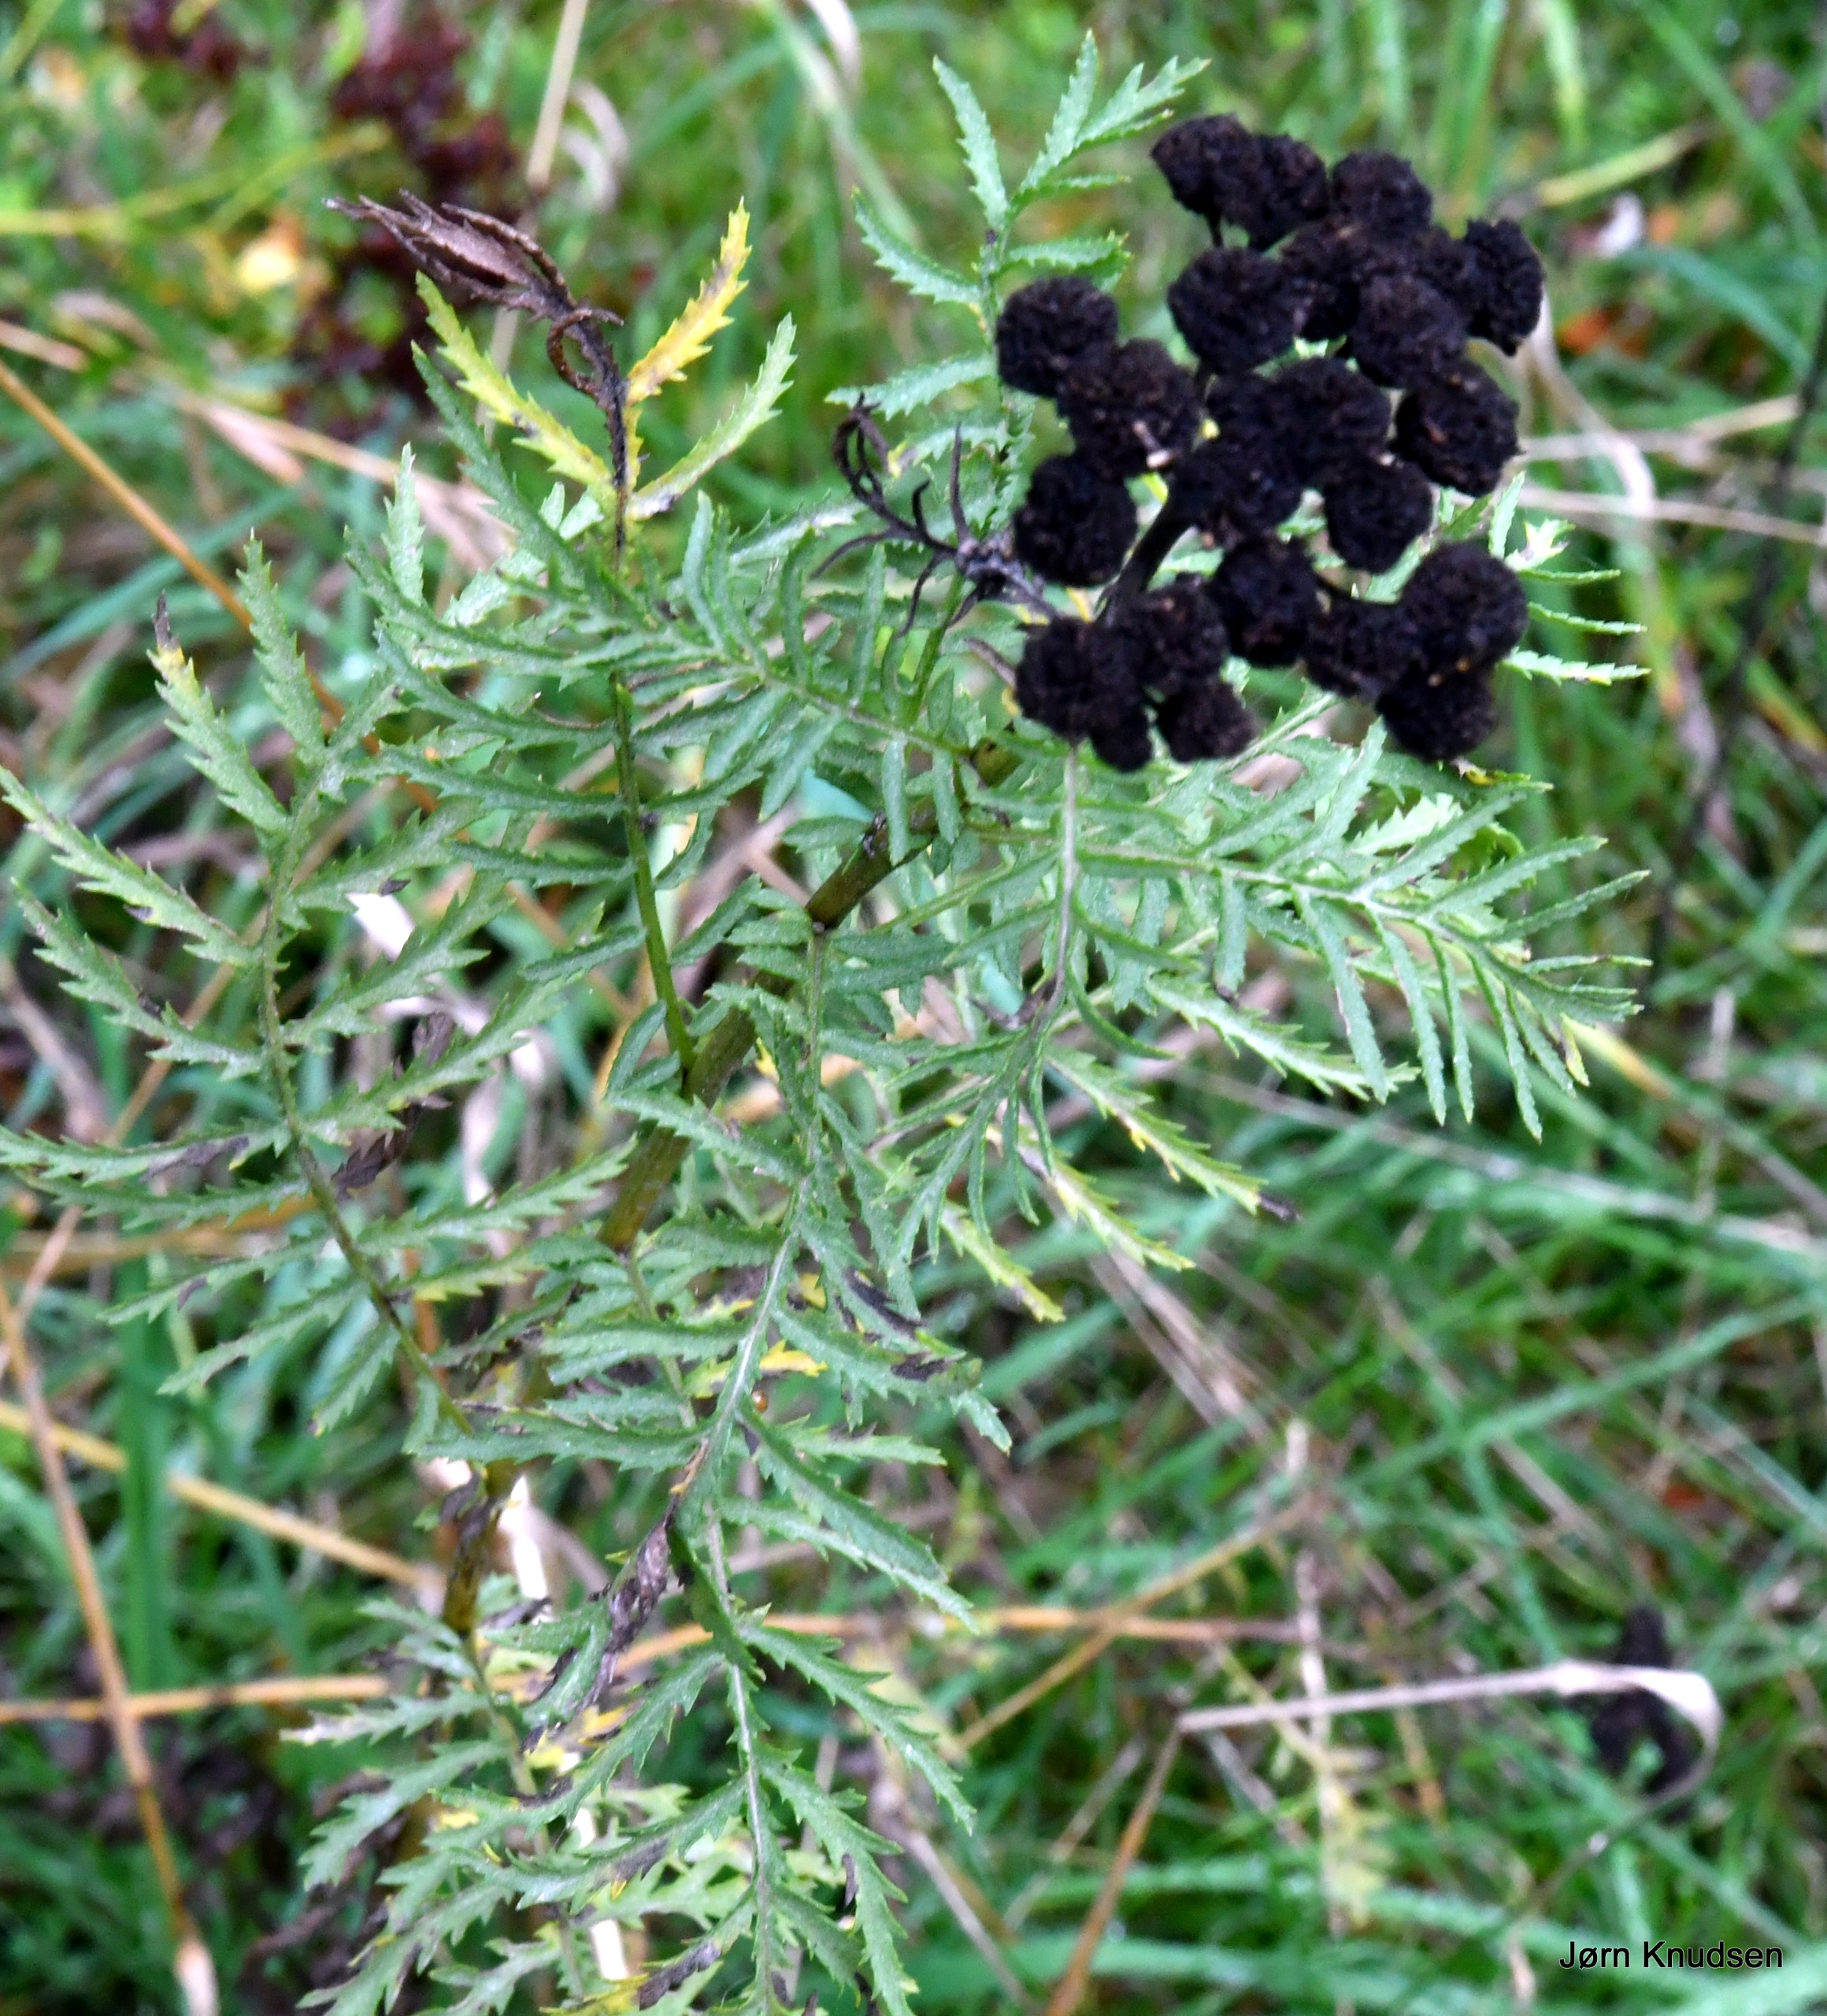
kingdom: Plantae
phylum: Tracheophyta
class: Magnoliopsida
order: Asterales
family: Asteraceae
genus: Tanacetum
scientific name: Tanacetum vulgare
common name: Rejnfan
